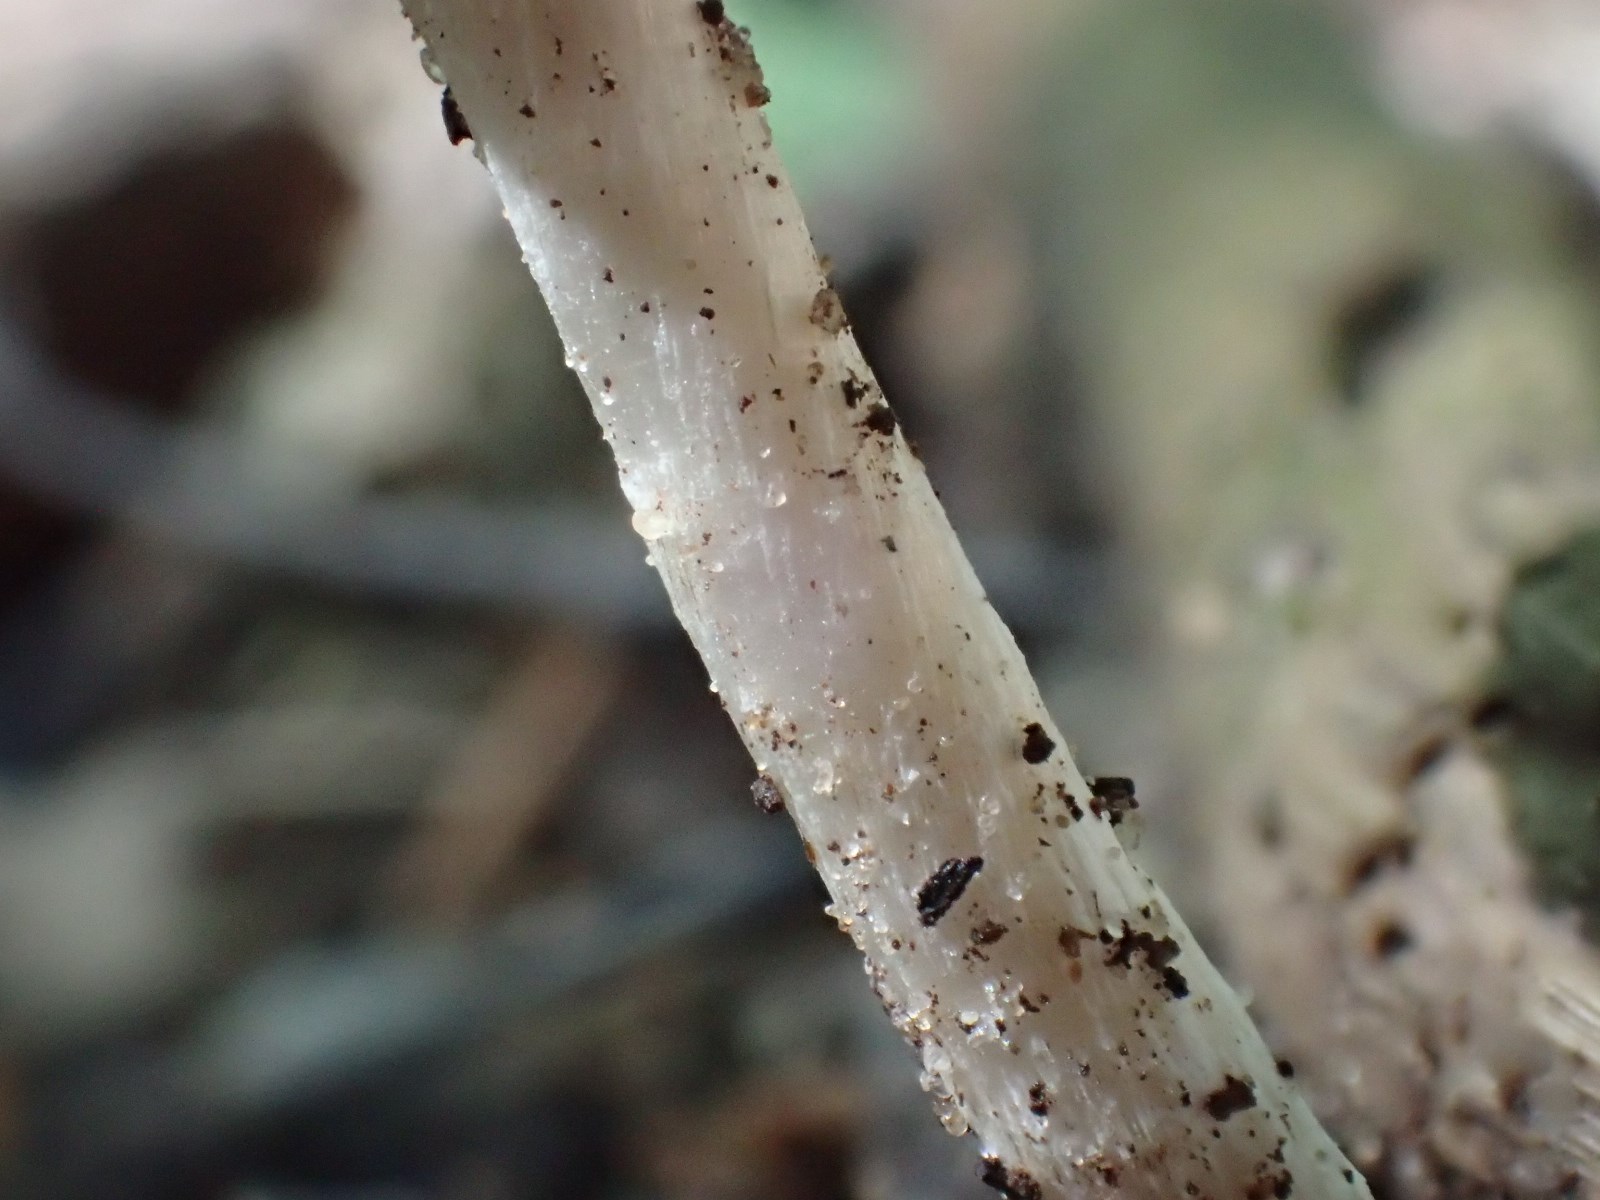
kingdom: Fungi
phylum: Basidiomycota
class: Agaricomycetes
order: Agaricales
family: Psathyrellaceae
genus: Psathyrella
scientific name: Psathyrella spadiceogrisea
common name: gråbrun mørkhat
